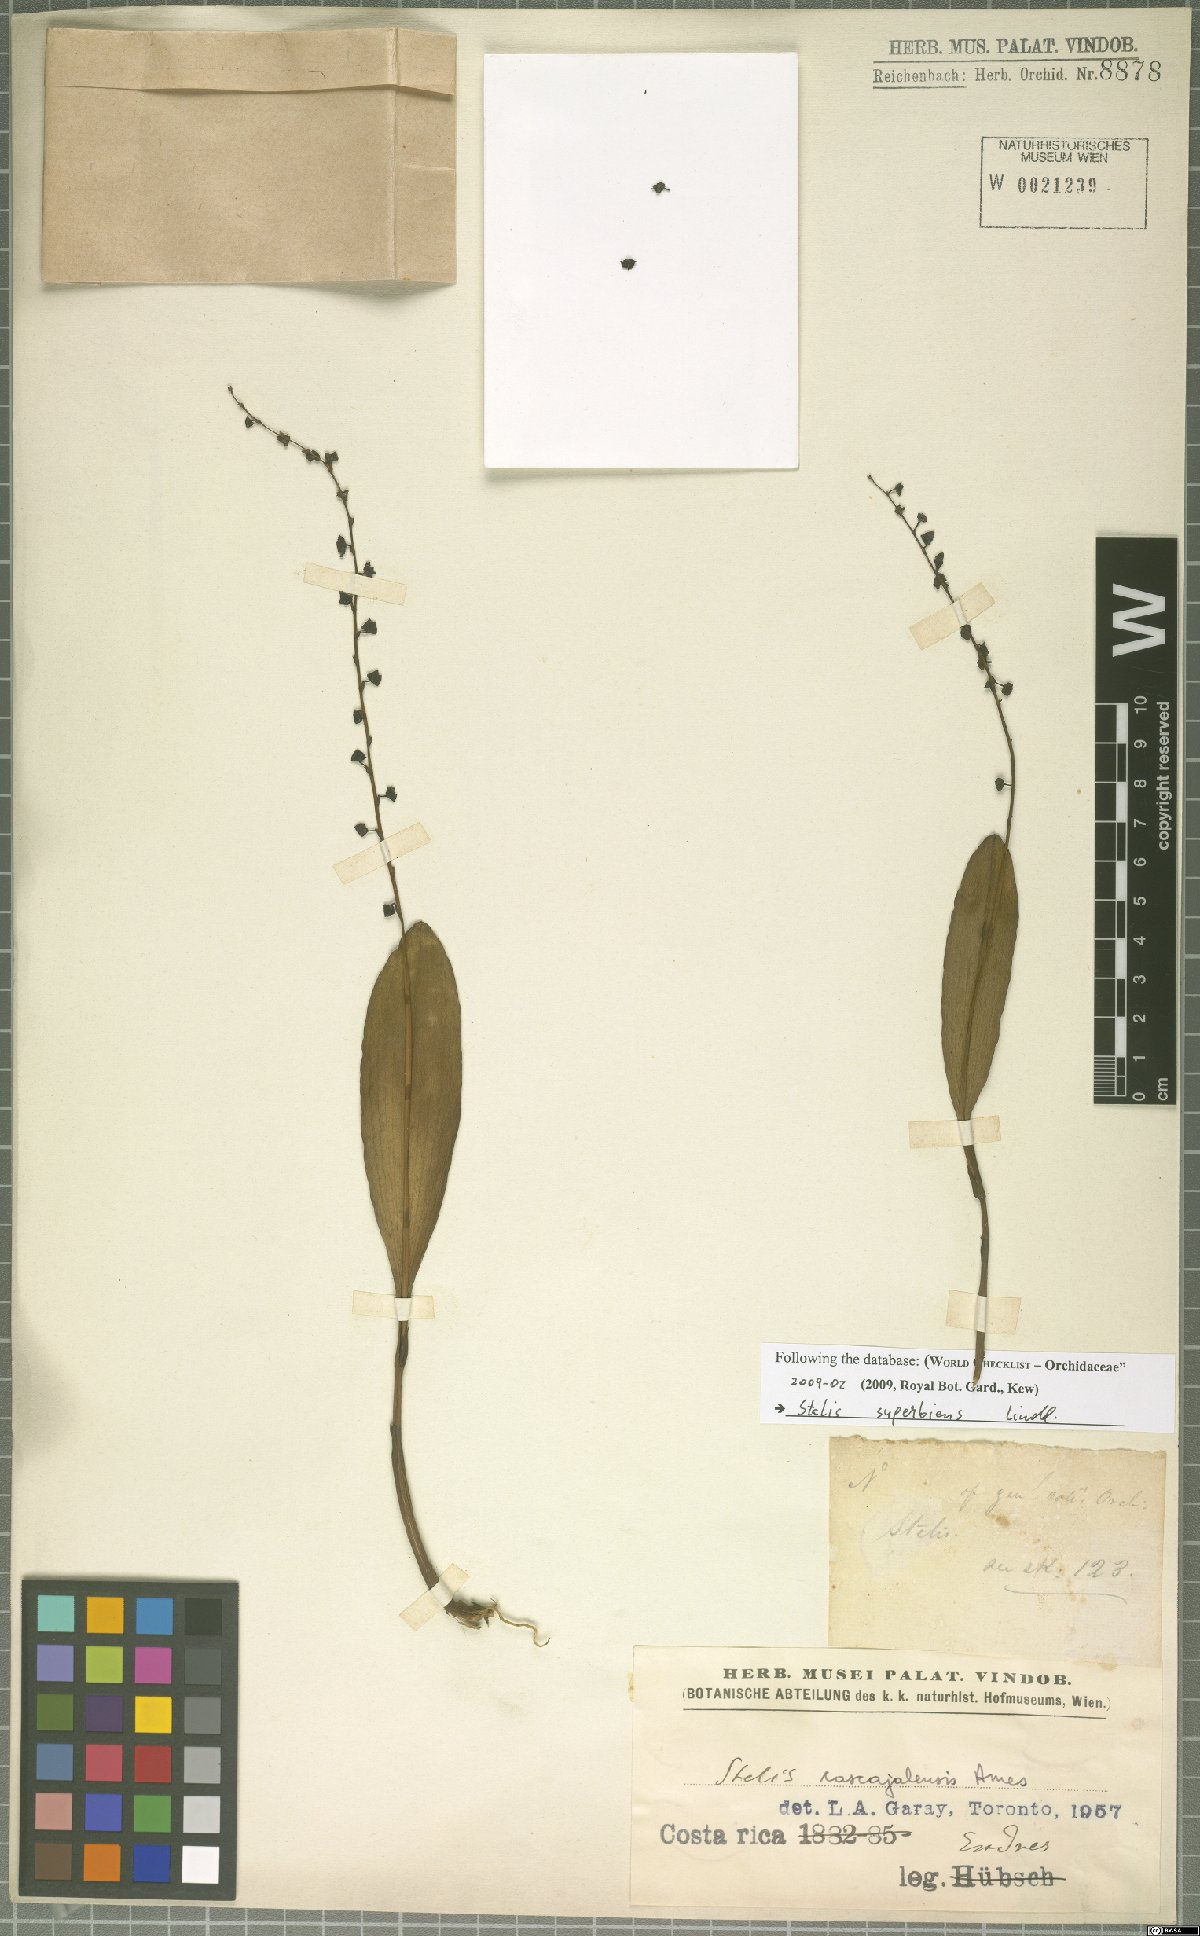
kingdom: Plantae
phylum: Tracheophyta
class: Liliopsida
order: Asparagales
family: Orchidaceae
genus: Stelis
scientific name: Stelis superbiens
